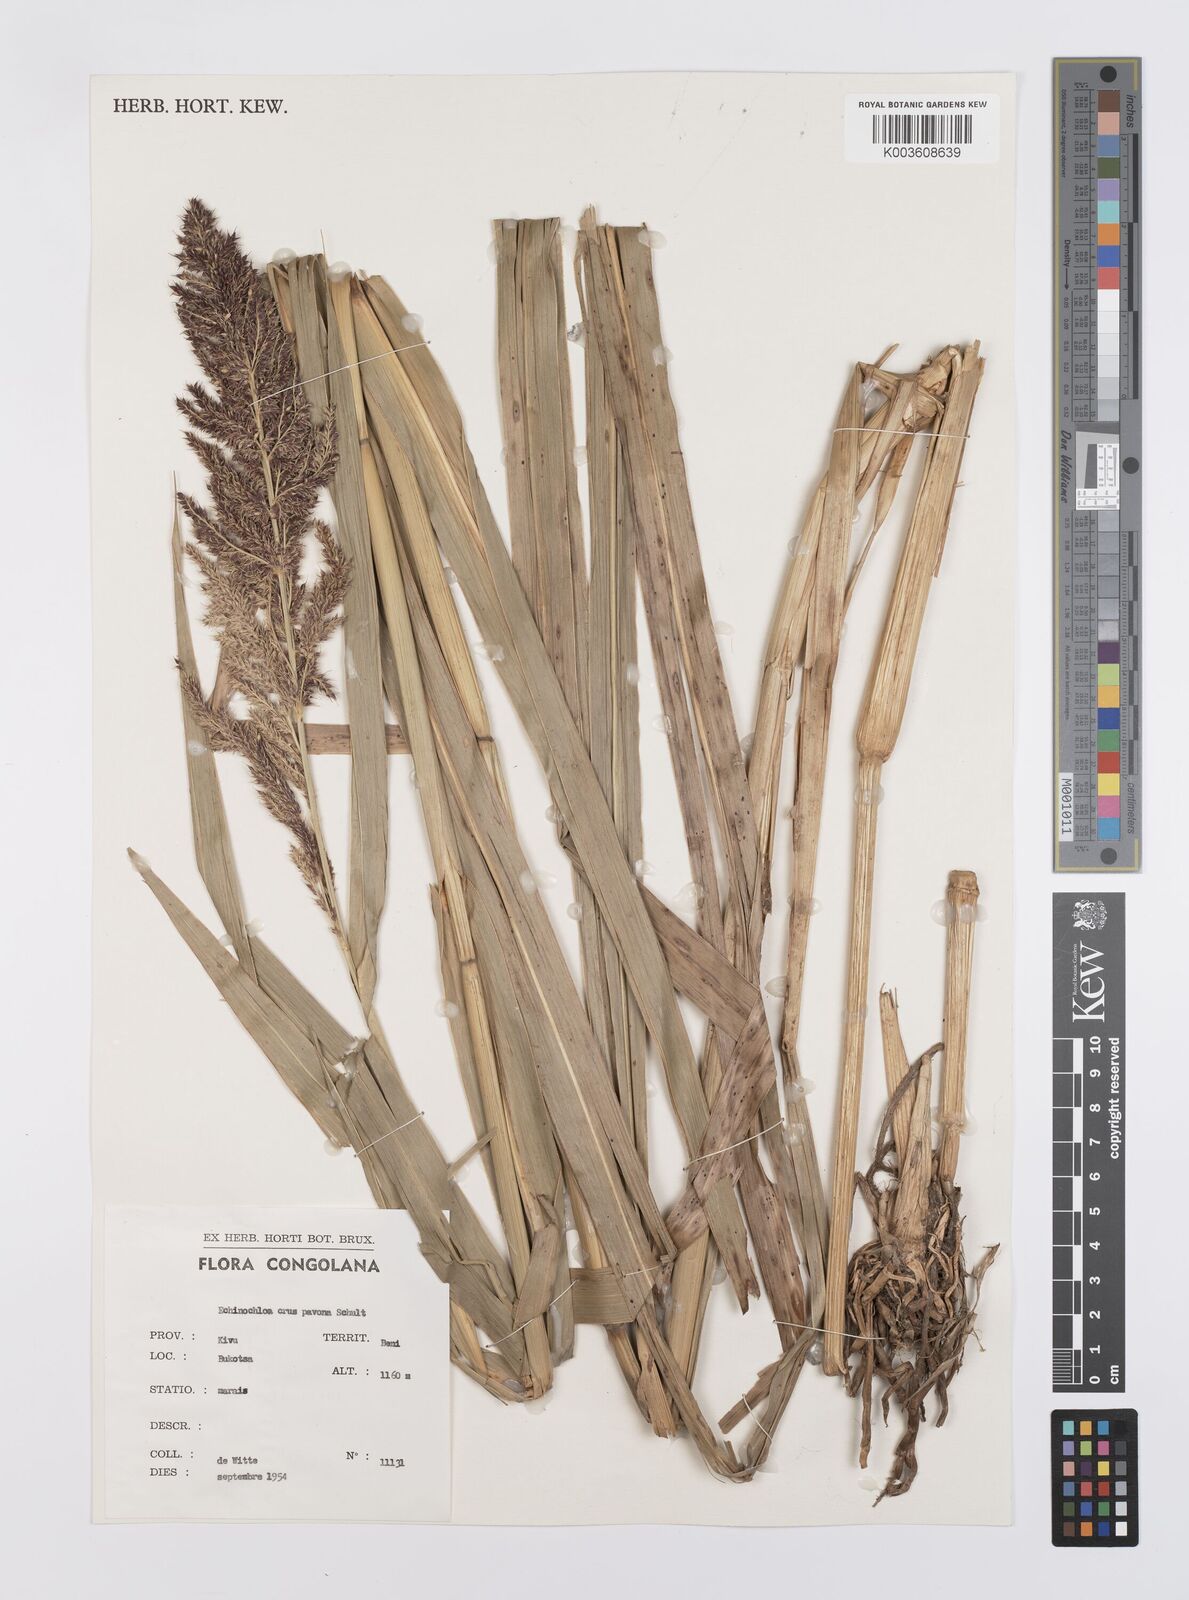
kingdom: Plantae
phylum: Tracheophyta
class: Liliopsida
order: Poales
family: Poaceae
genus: Echinochloa
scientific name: Echinochloa crus-pavonis
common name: Gulf cockspur grass
